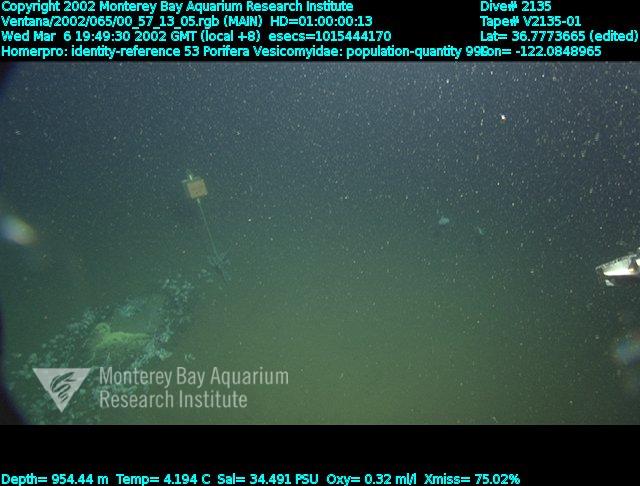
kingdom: Animalia
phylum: Porifera
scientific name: Porifera
